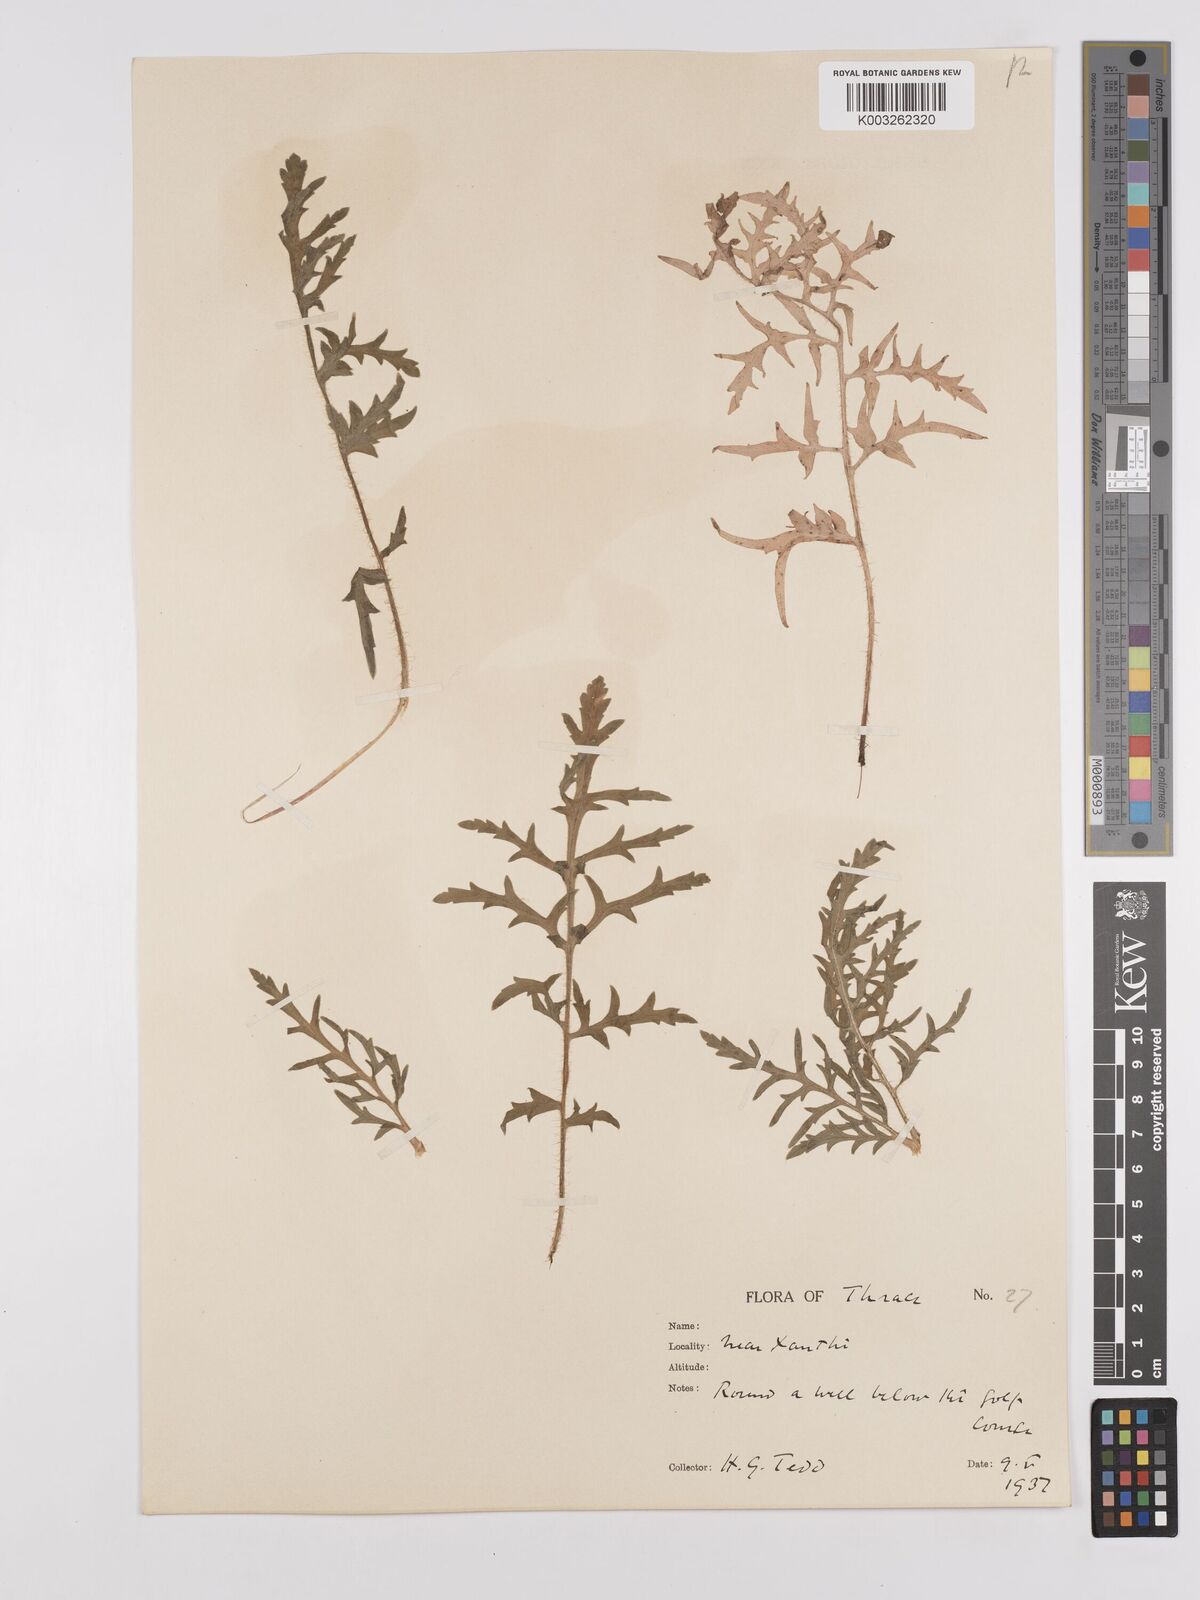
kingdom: Plantae
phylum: Tracheophyta
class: Magnoliopsida
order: Ranunculales
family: Papaveraceae
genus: Papaver
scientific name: Papaver rhoeas
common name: Corn poppy
